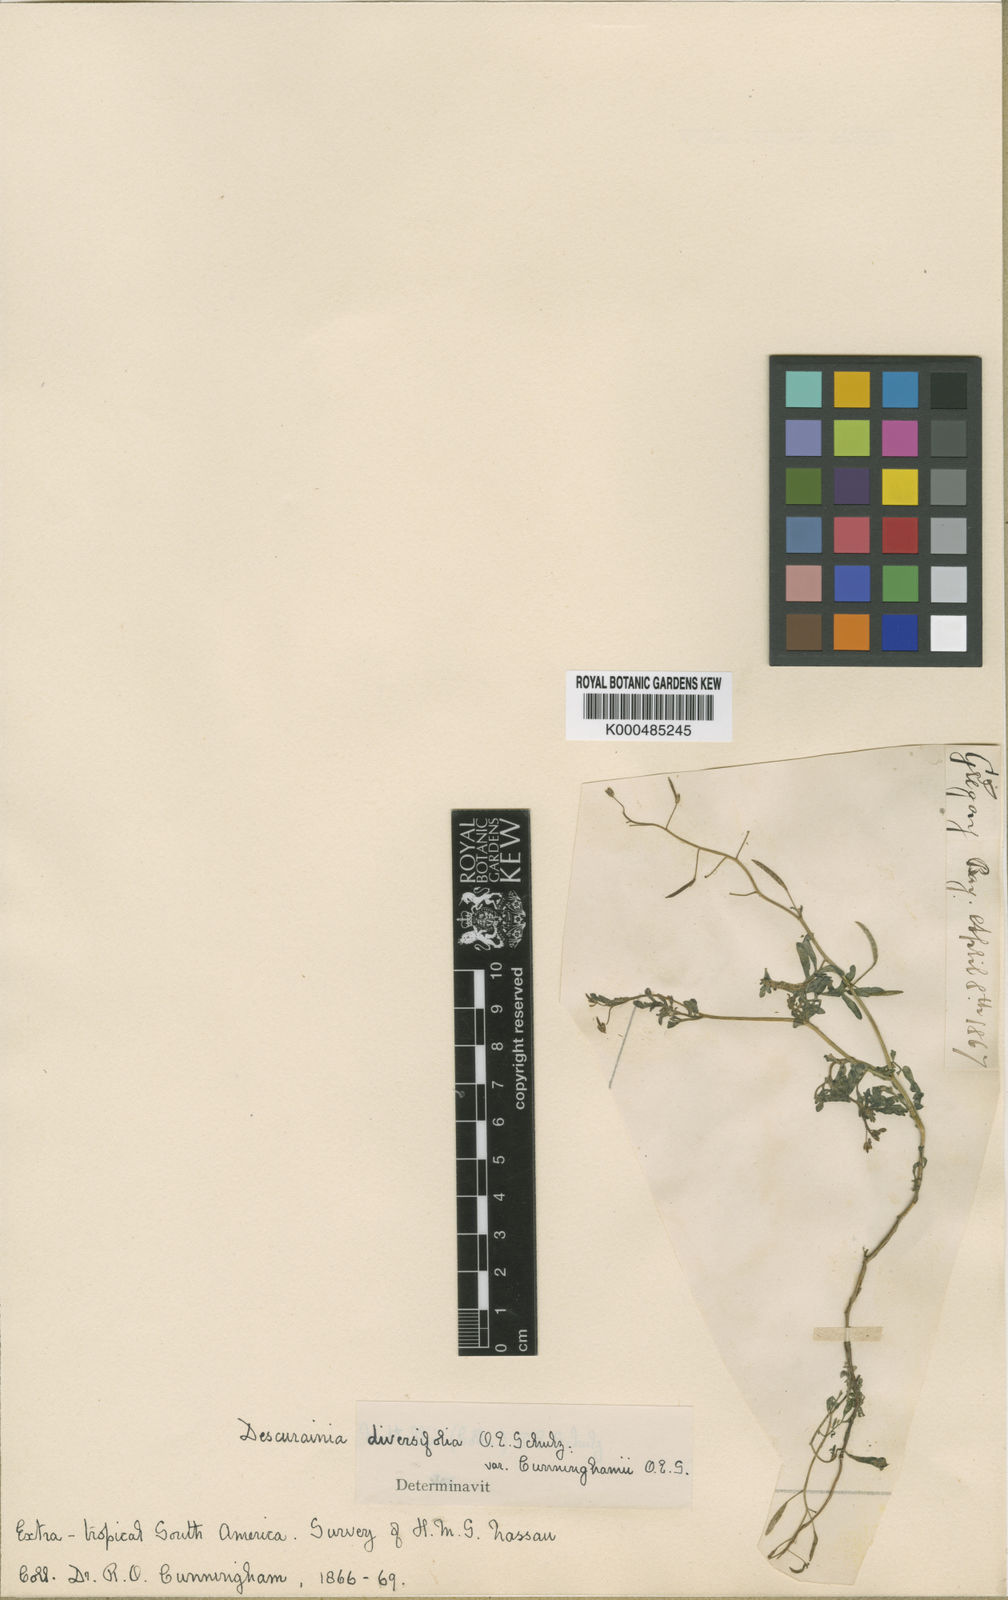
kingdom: Plantae
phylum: Tracheophyta
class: Magnoliopsida
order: Brassicales
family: Brassicaceae
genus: Descurainia
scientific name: Descurainia nuttallii
